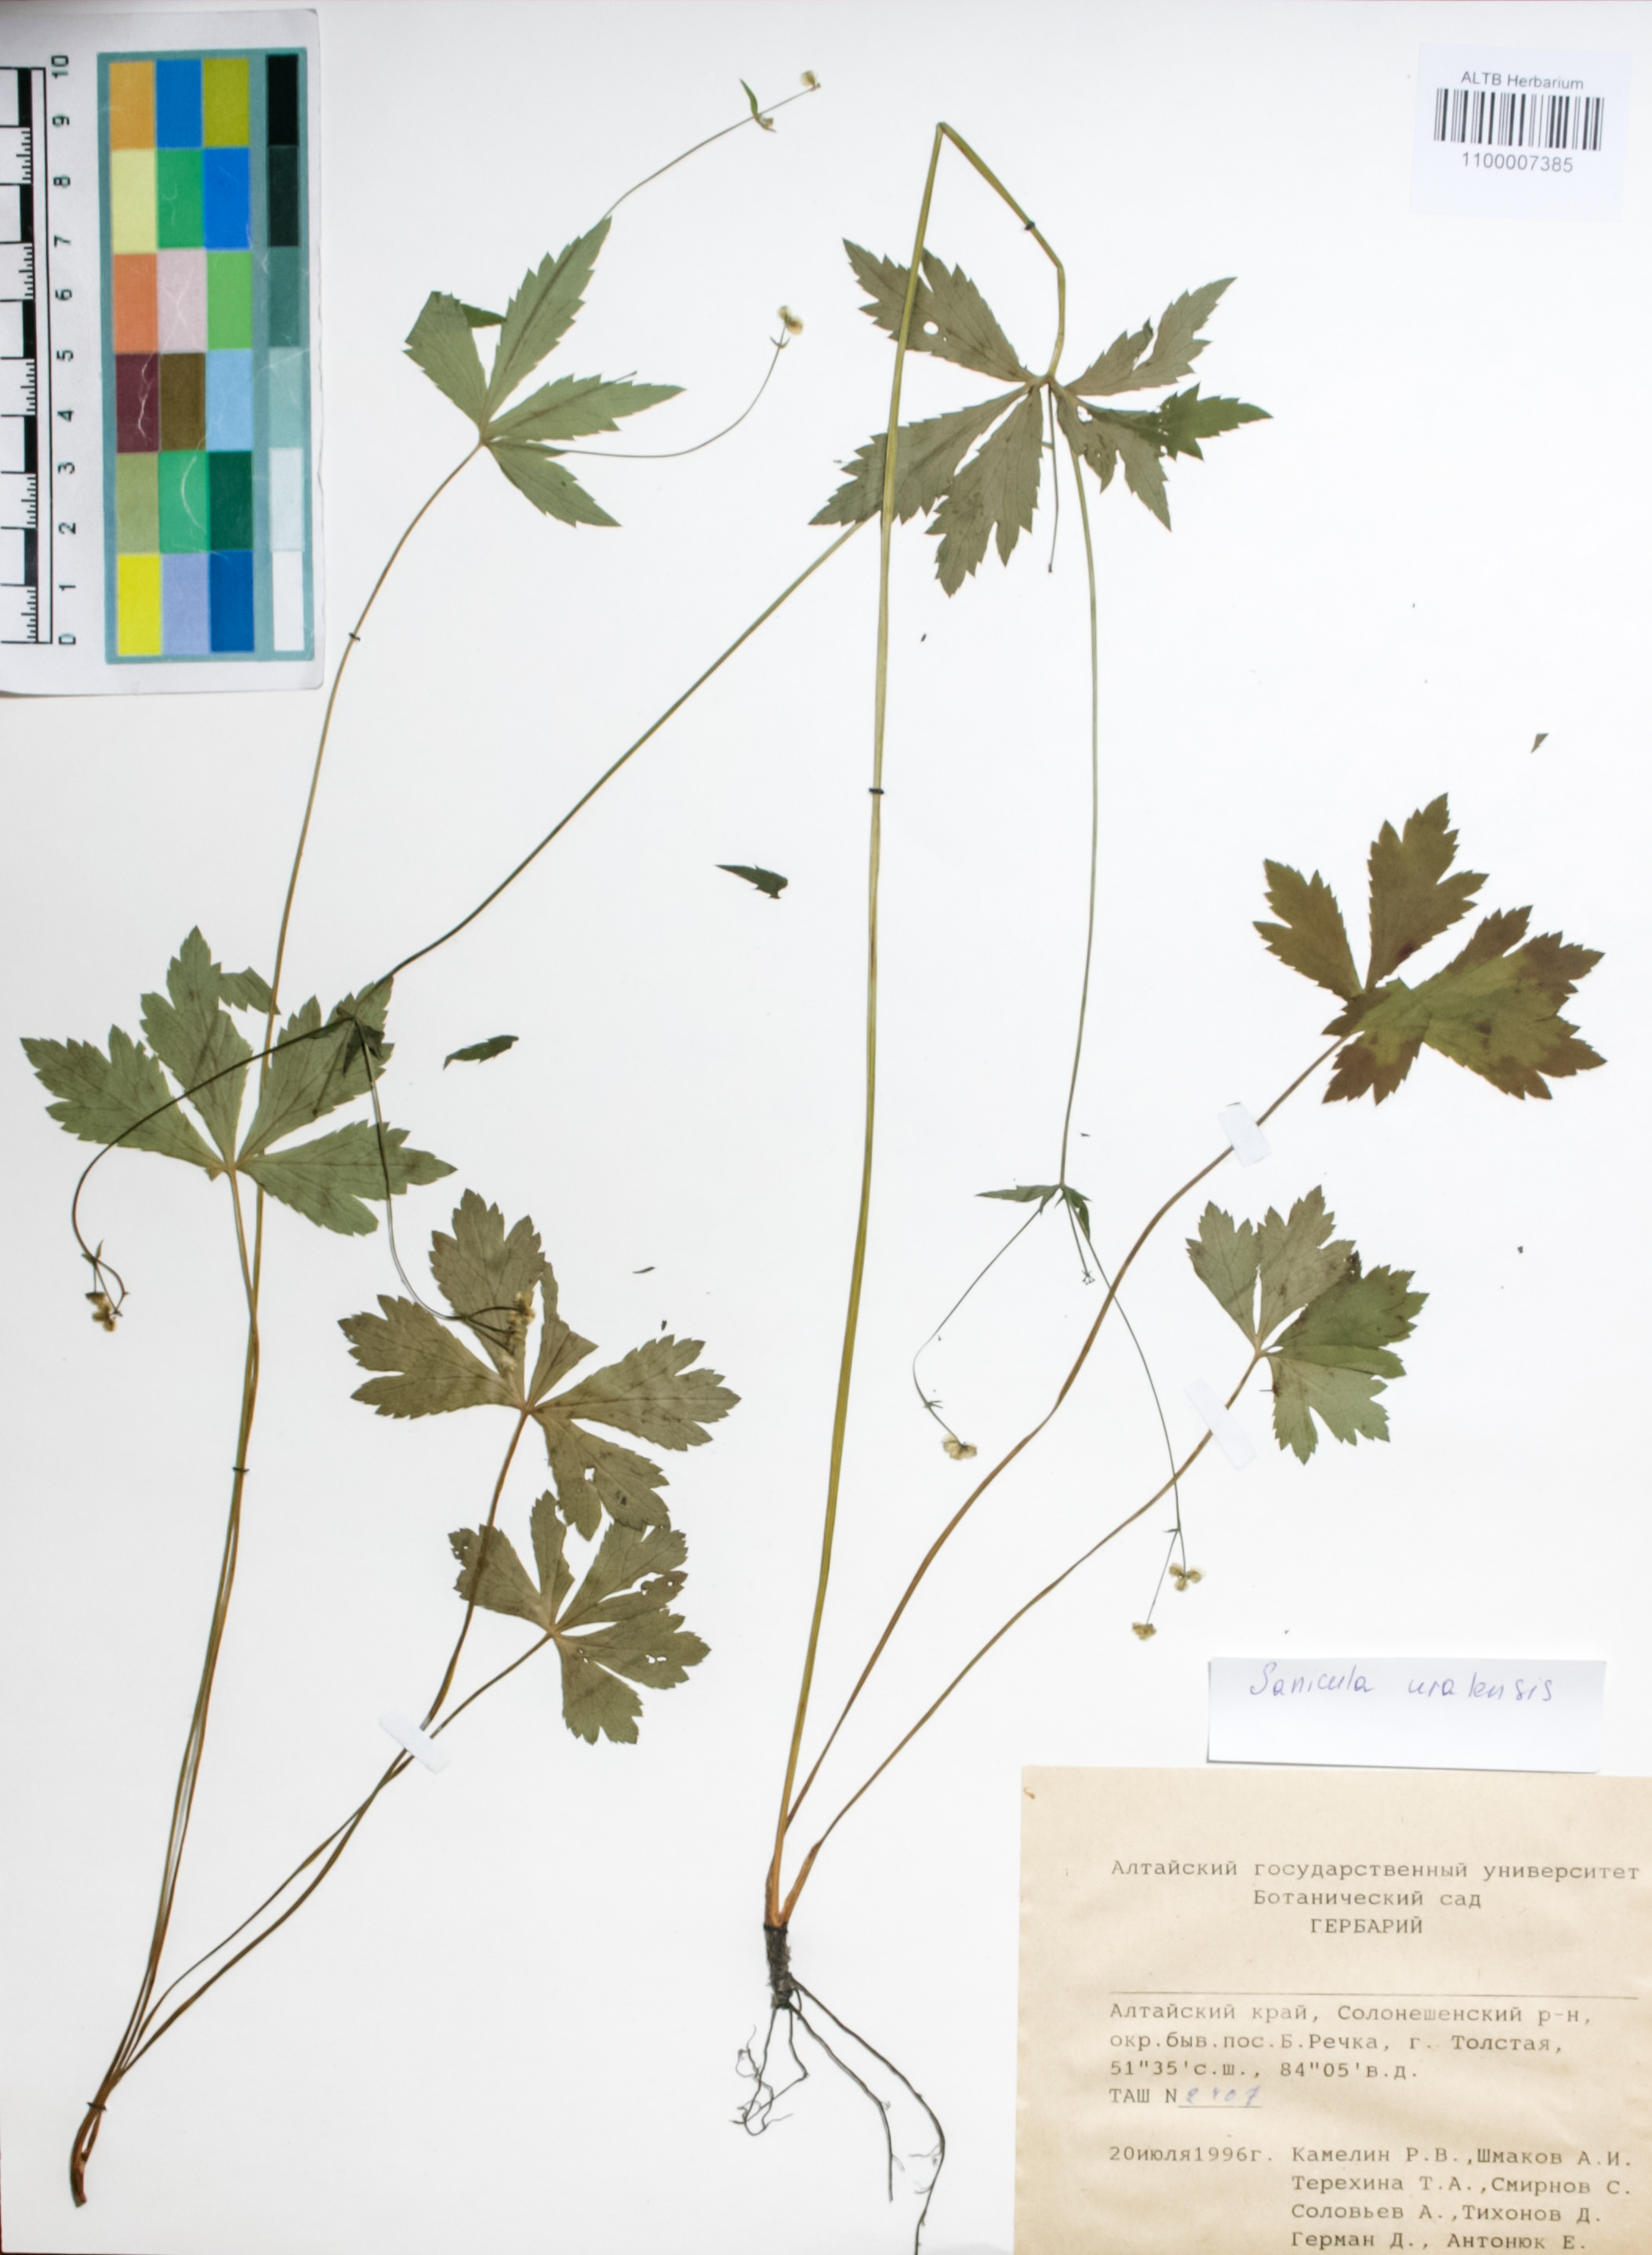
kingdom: Plantae
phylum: Tracheophyta
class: Magnoliopsida
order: Apiales
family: Apiaceae
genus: Sanicula
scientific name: Sanicula giraldii
